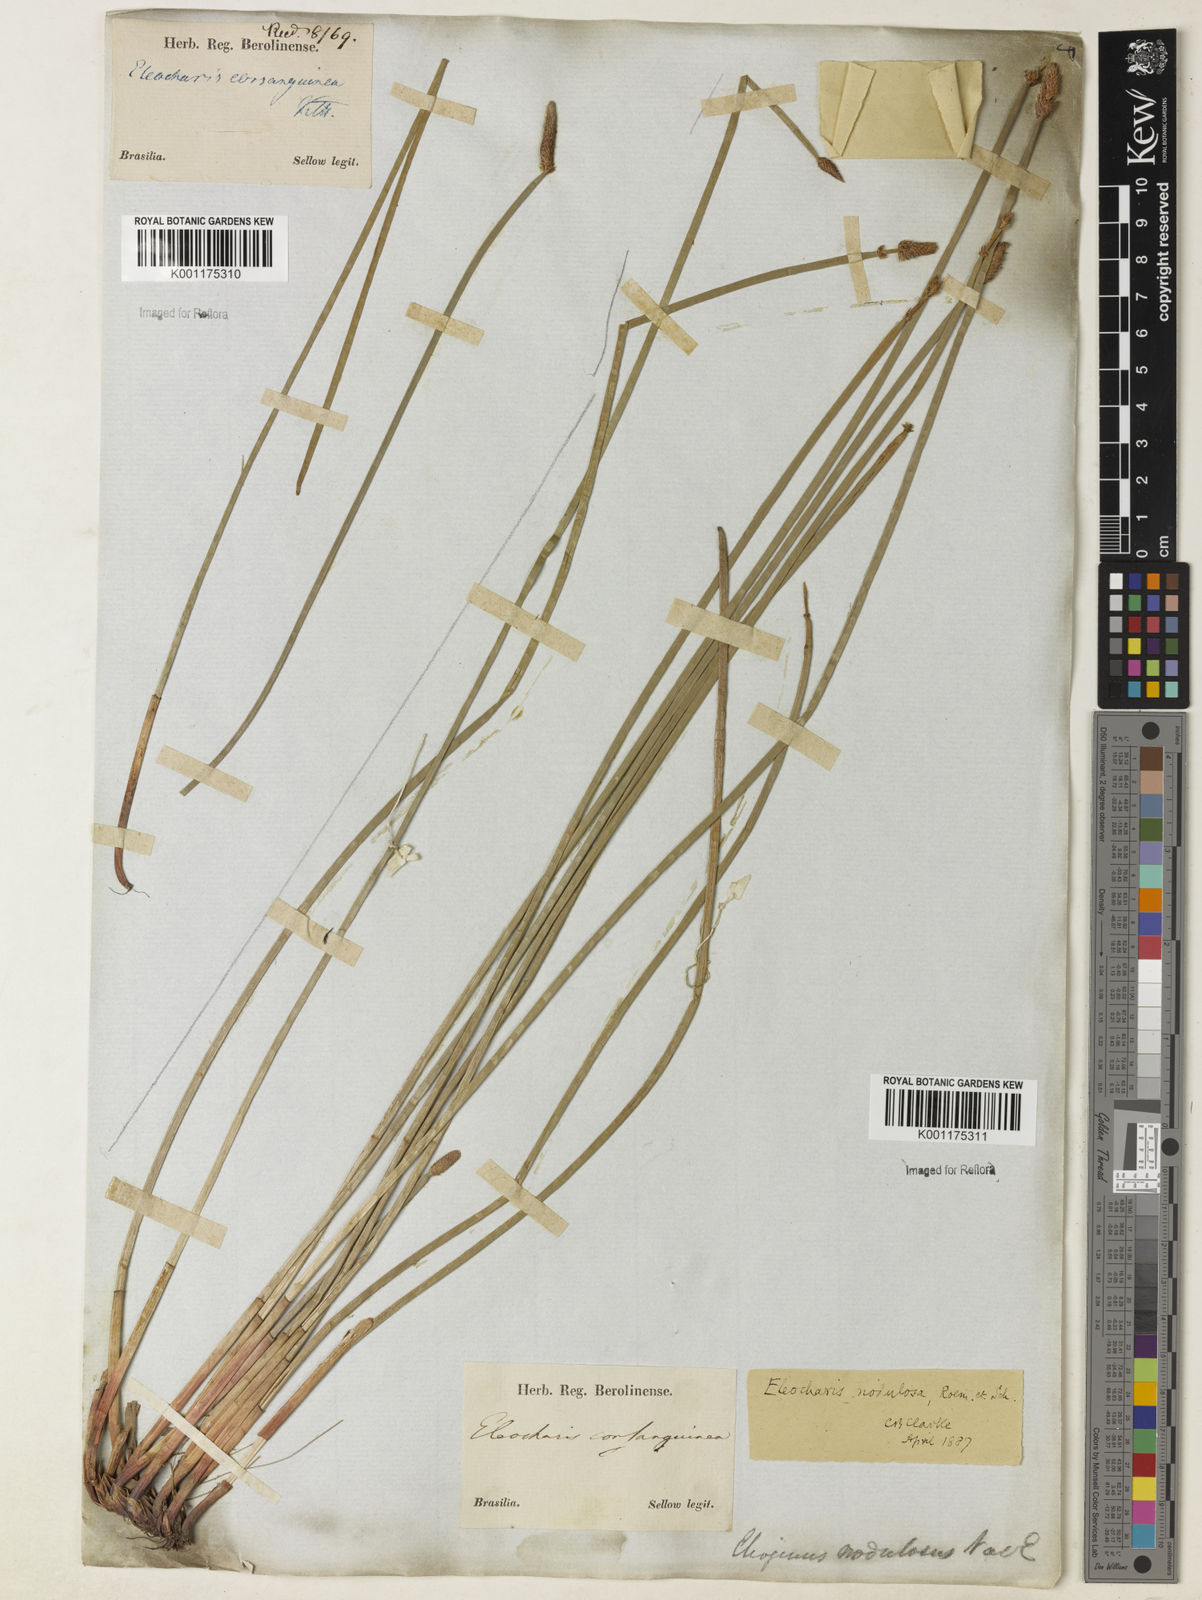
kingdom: Plantae
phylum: Tracheophyta
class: Liliopsida
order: Poales
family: Cyperaceae
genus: Eleocharis
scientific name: Eleocharis montana
